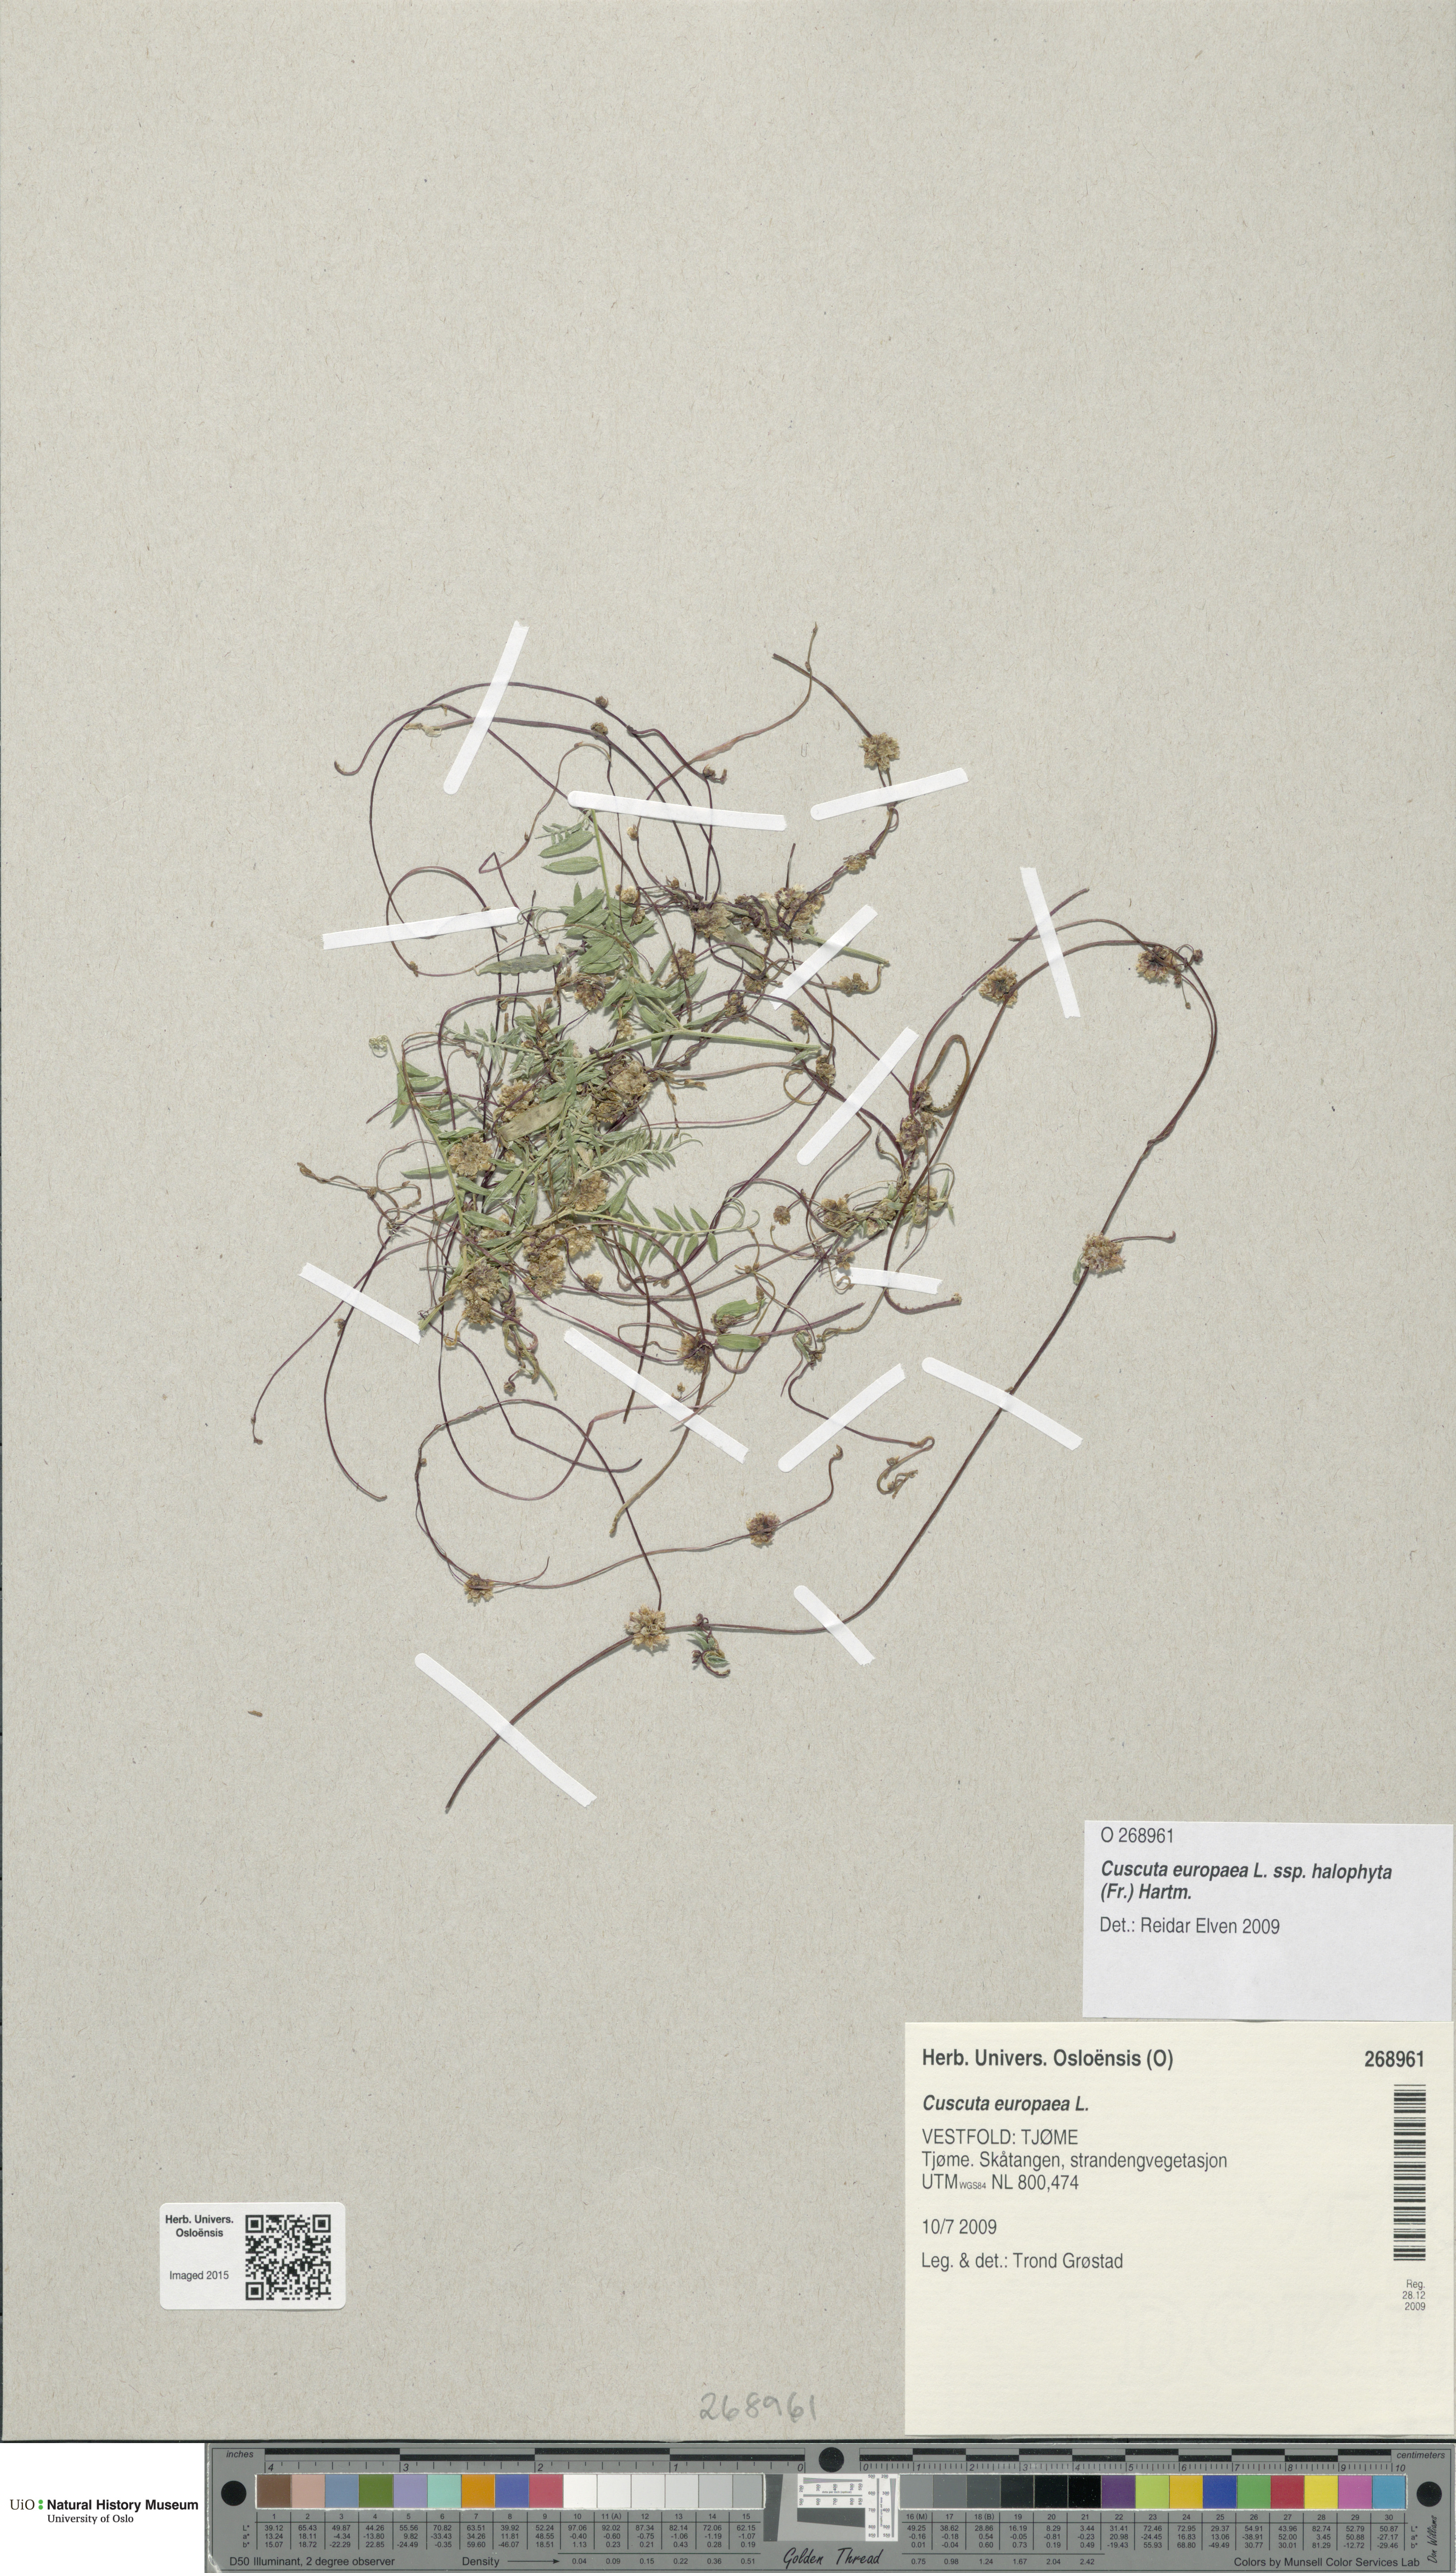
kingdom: Plantae
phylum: Tracheophyta
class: Magnoliopsida
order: Solanales
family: Convolvulaceae
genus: Cuscuta
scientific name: Cuscuta europaea
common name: Greater dodder
